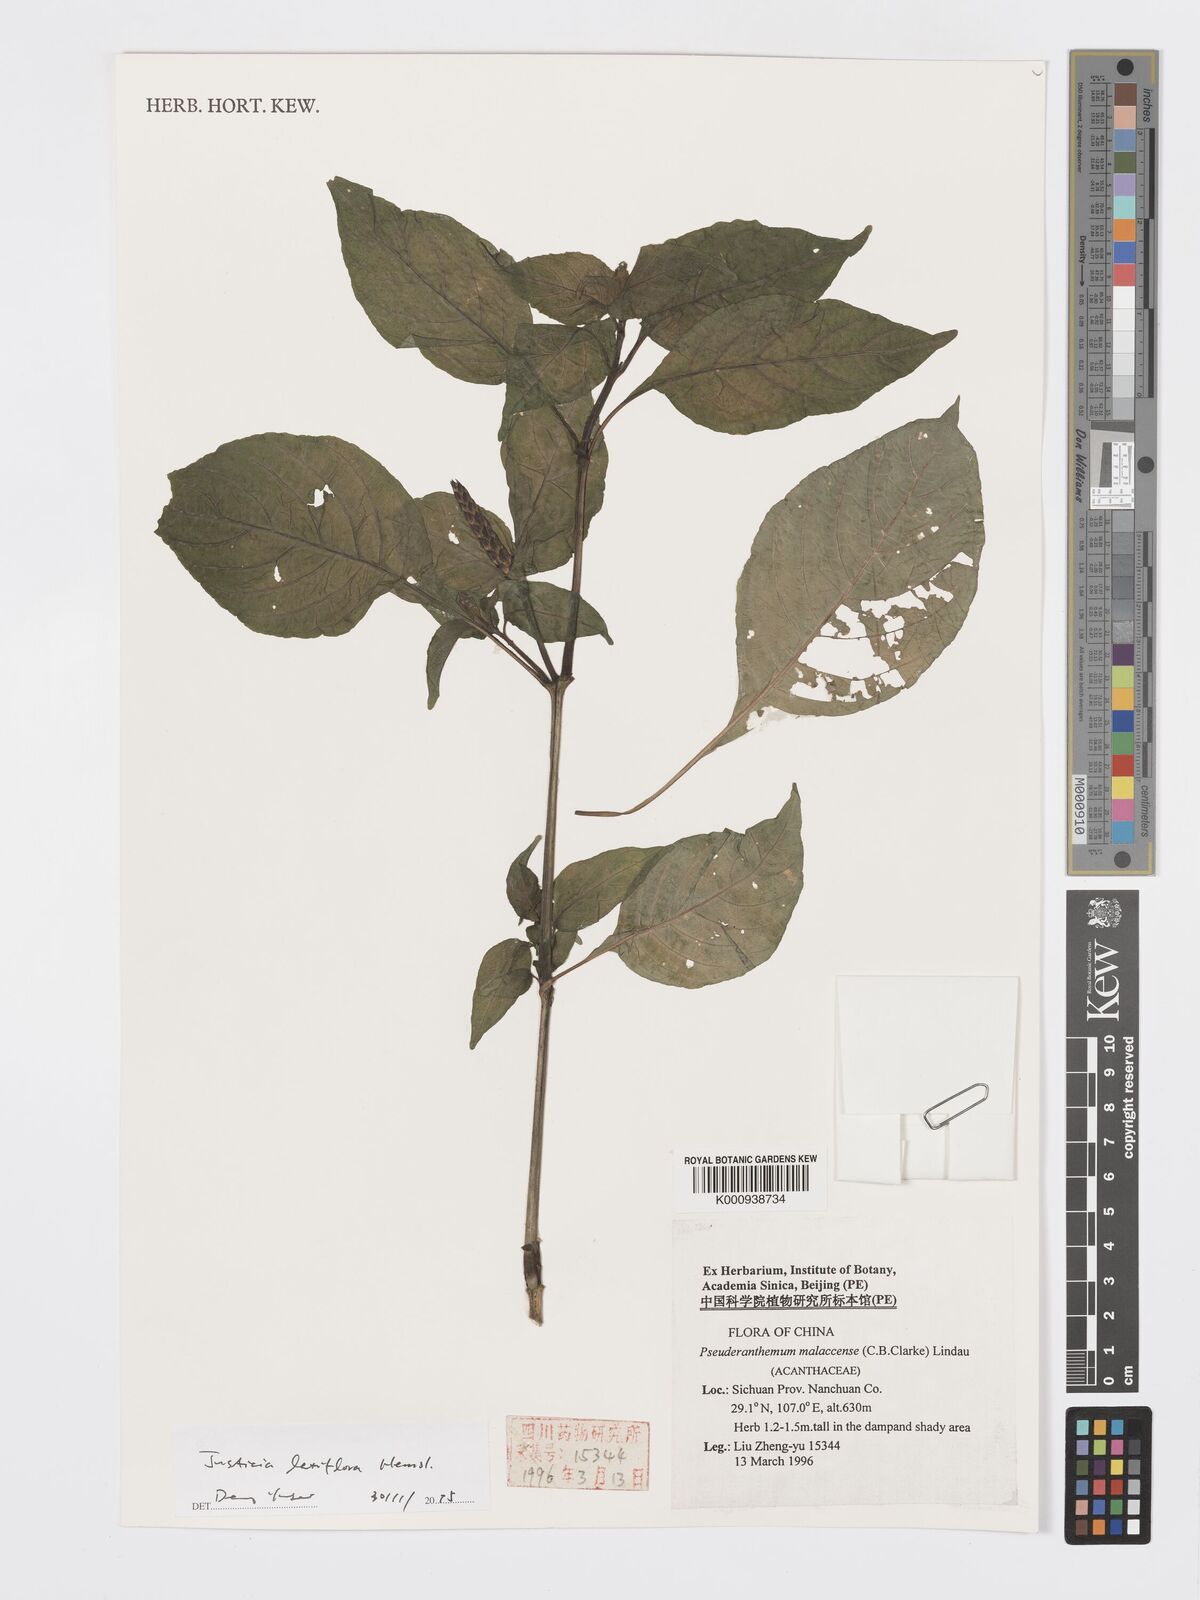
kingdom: Plantae
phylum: Tracheophyta
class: Magnoliopsida
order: Lamiales
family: Acanthaceae
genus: Justicia
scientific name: Justicia latiflora
